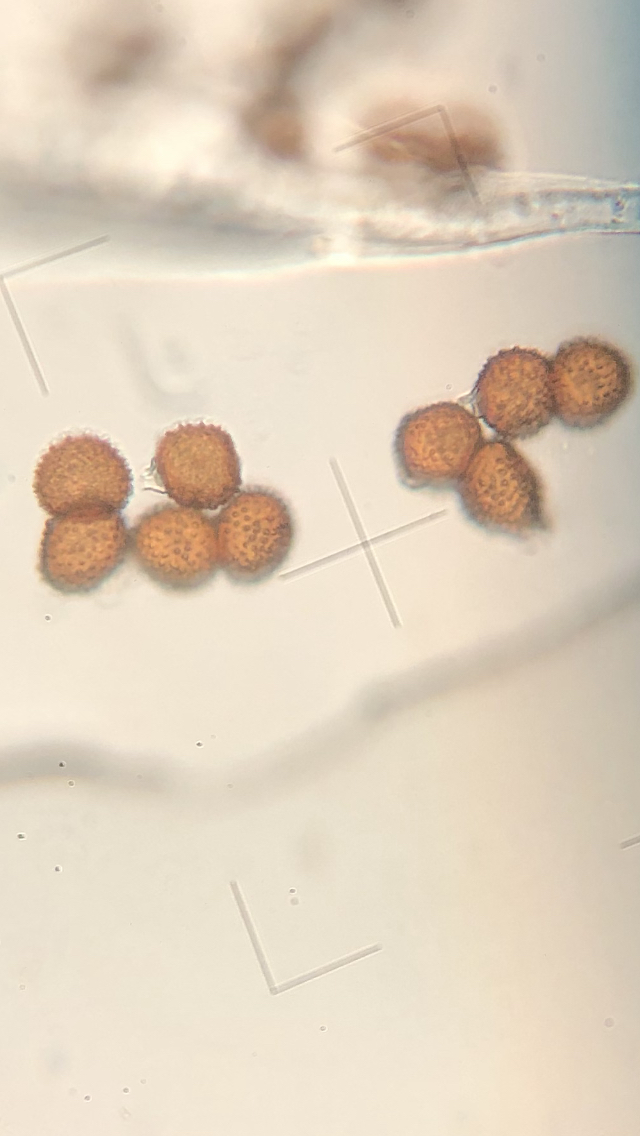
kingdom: Fungi
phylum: Basidiomycota
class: Pucciniomycetes
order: Pucciniales
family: Tranzscheliaceae
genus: Tranzschelia
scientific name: Tranzschelia anemones
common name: anemone-knæksporerust
